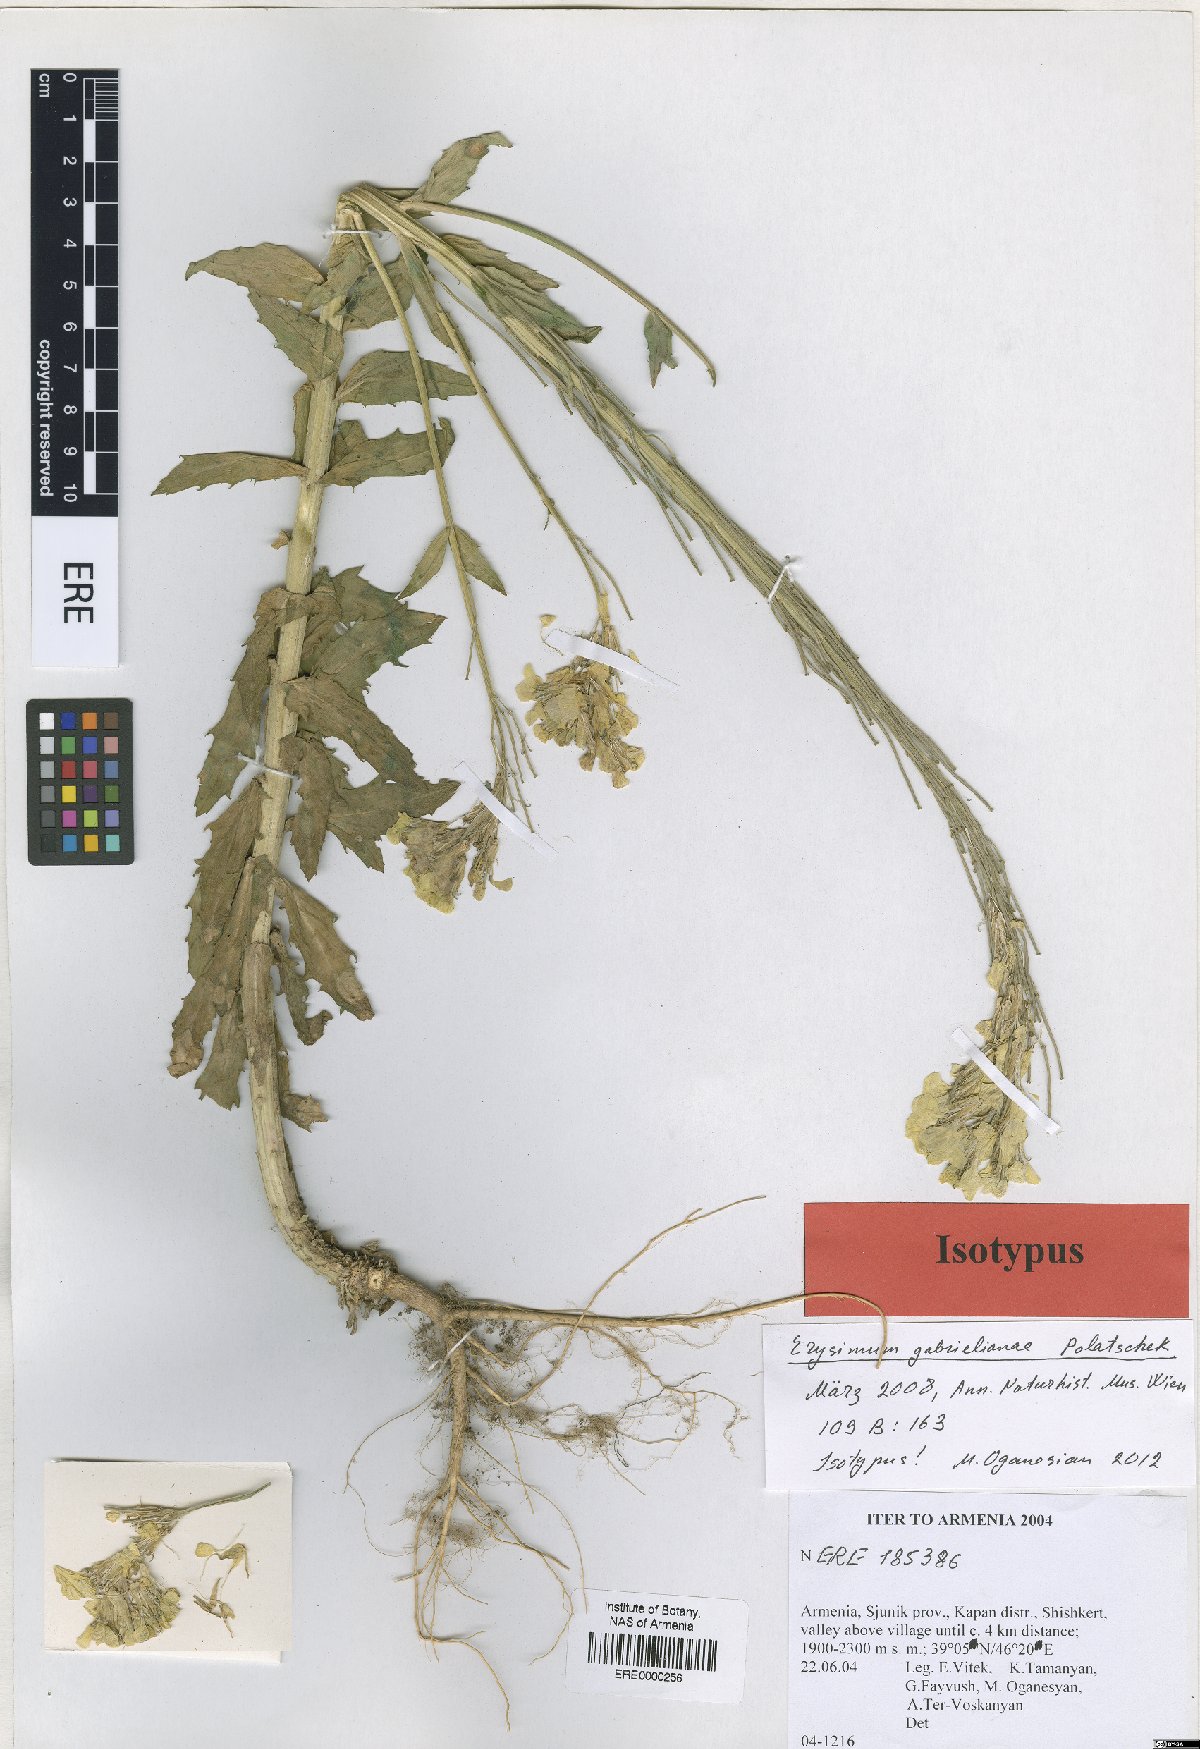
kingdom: Plantae
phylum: Tracheophyta
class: Magnoliopsida
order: Brassicales
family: Brassicaceae
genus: Erysimum
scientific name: Erysimum ibericum
